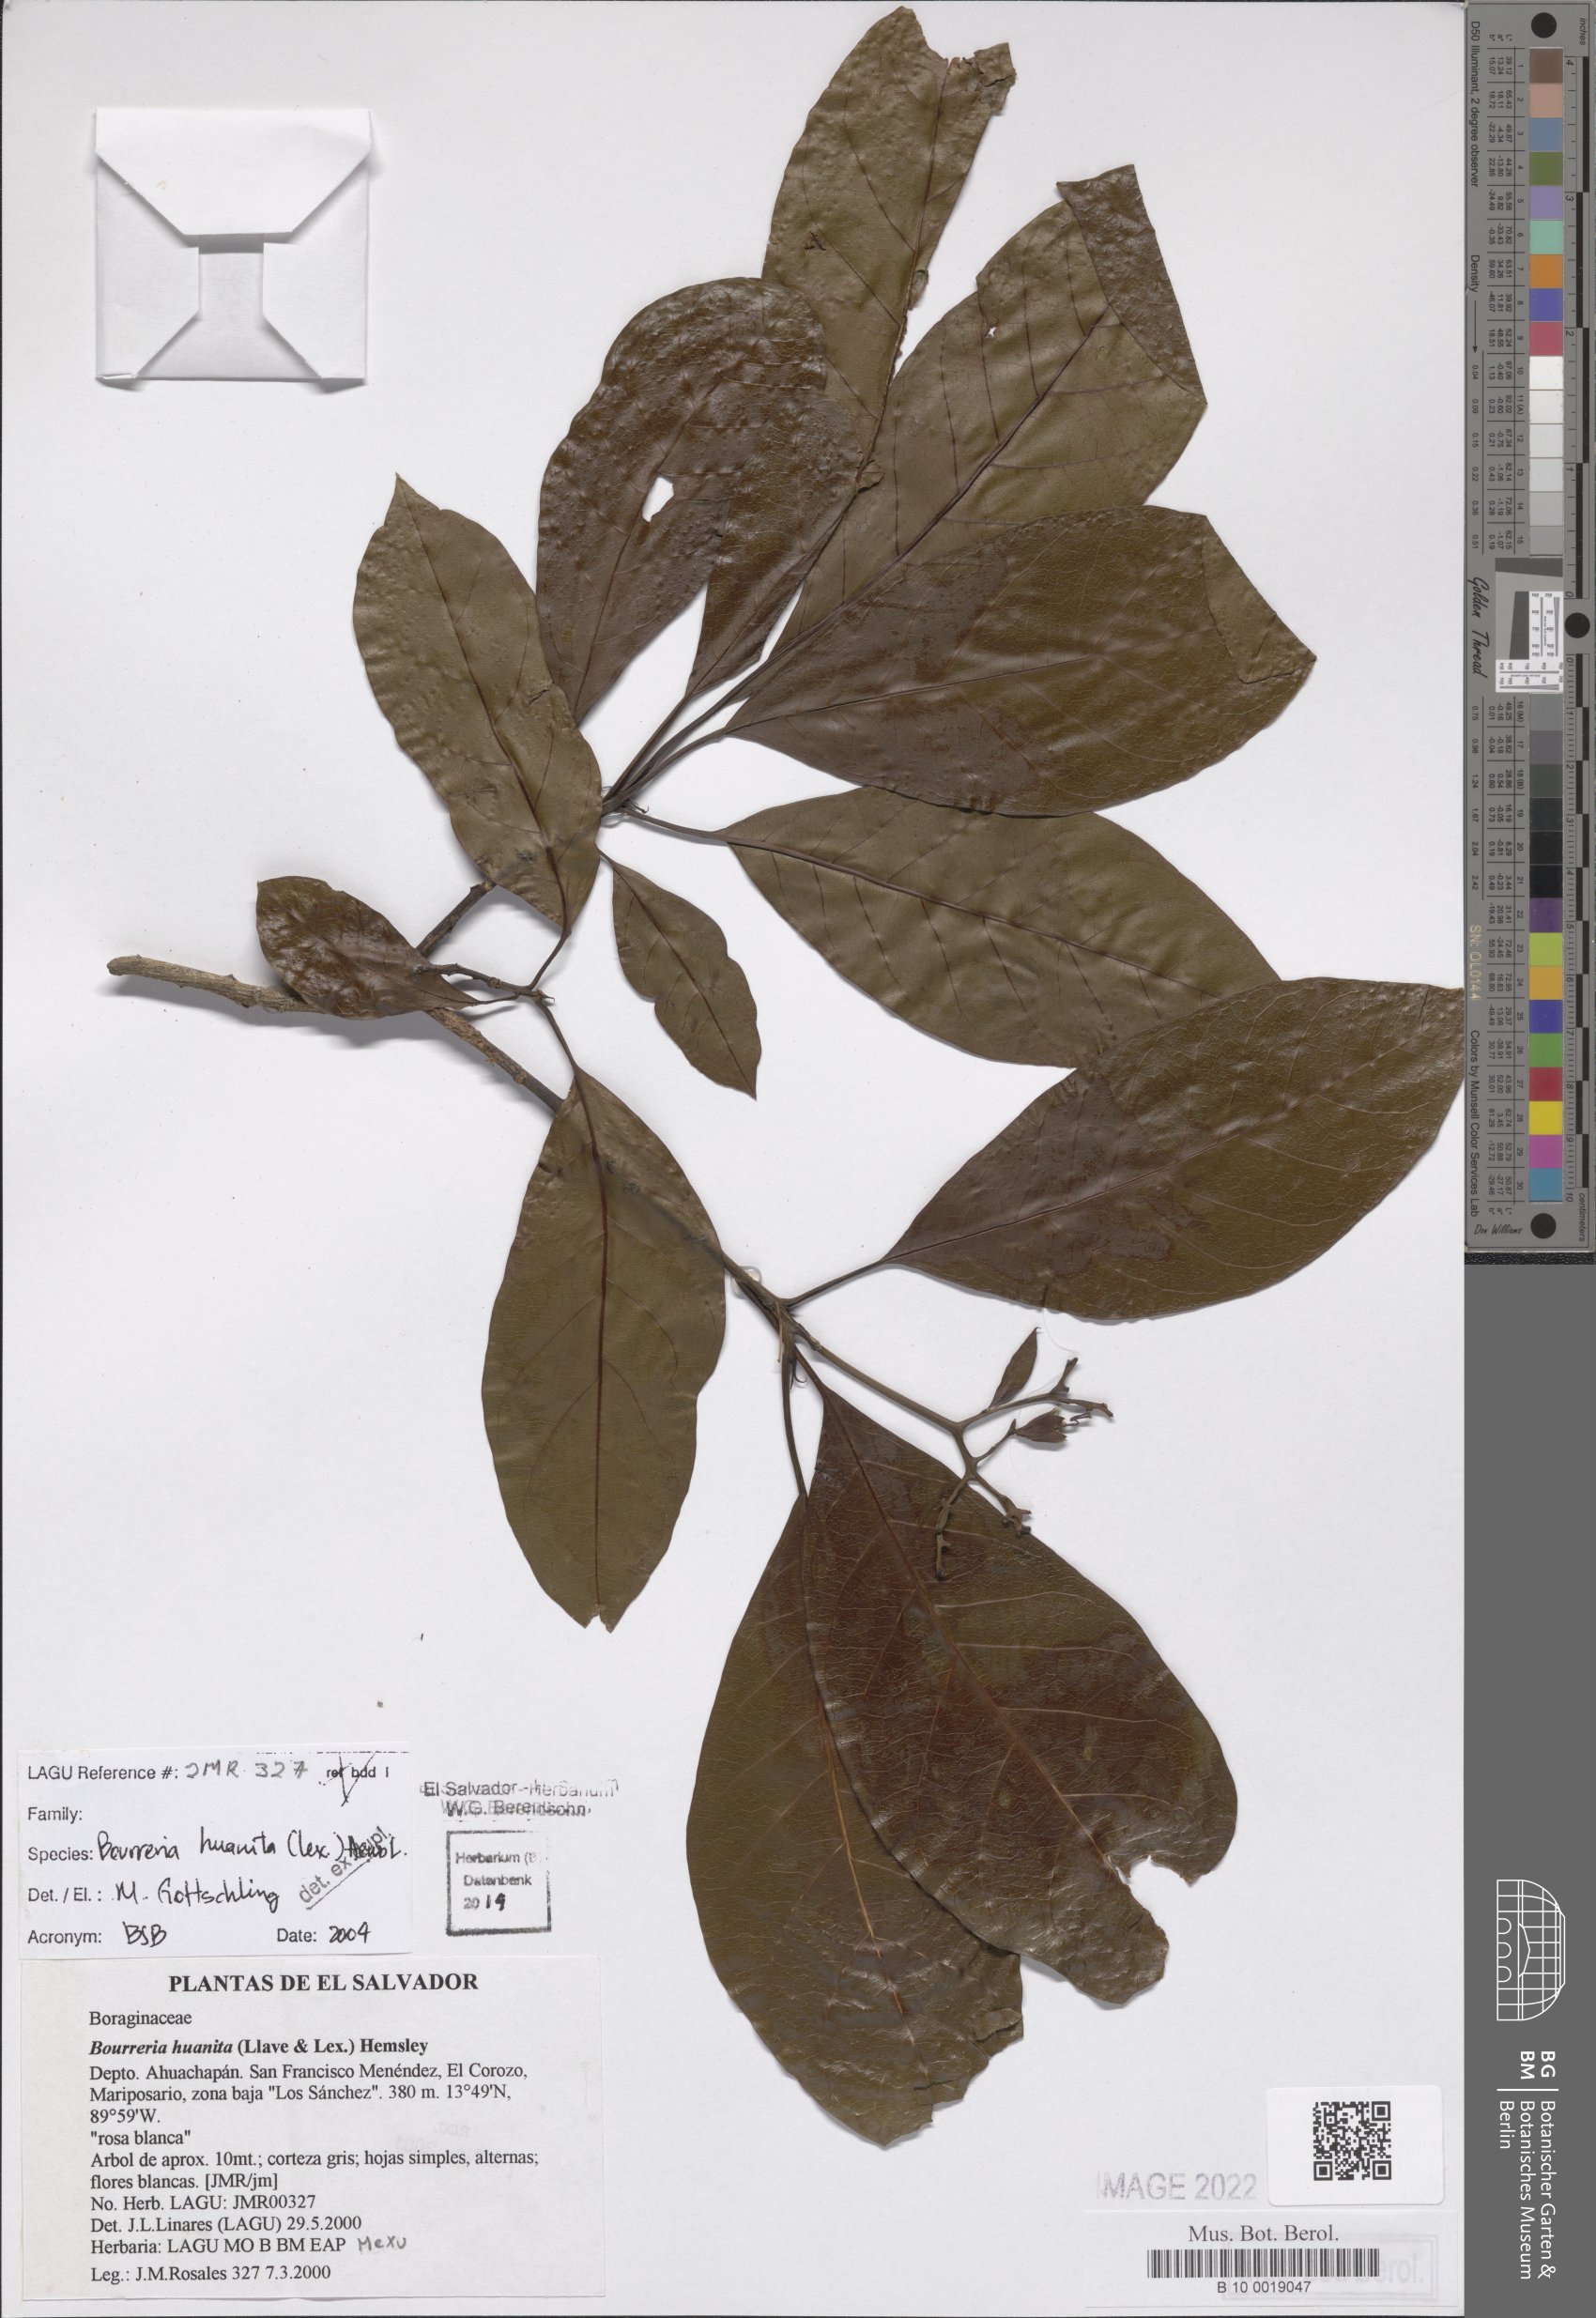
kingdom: Plantae
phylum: Tracheophyta
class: Magnoliopsida
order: Boraginales
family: Ehretiaceae
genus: Bourreria
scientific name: Bourreria huanita
